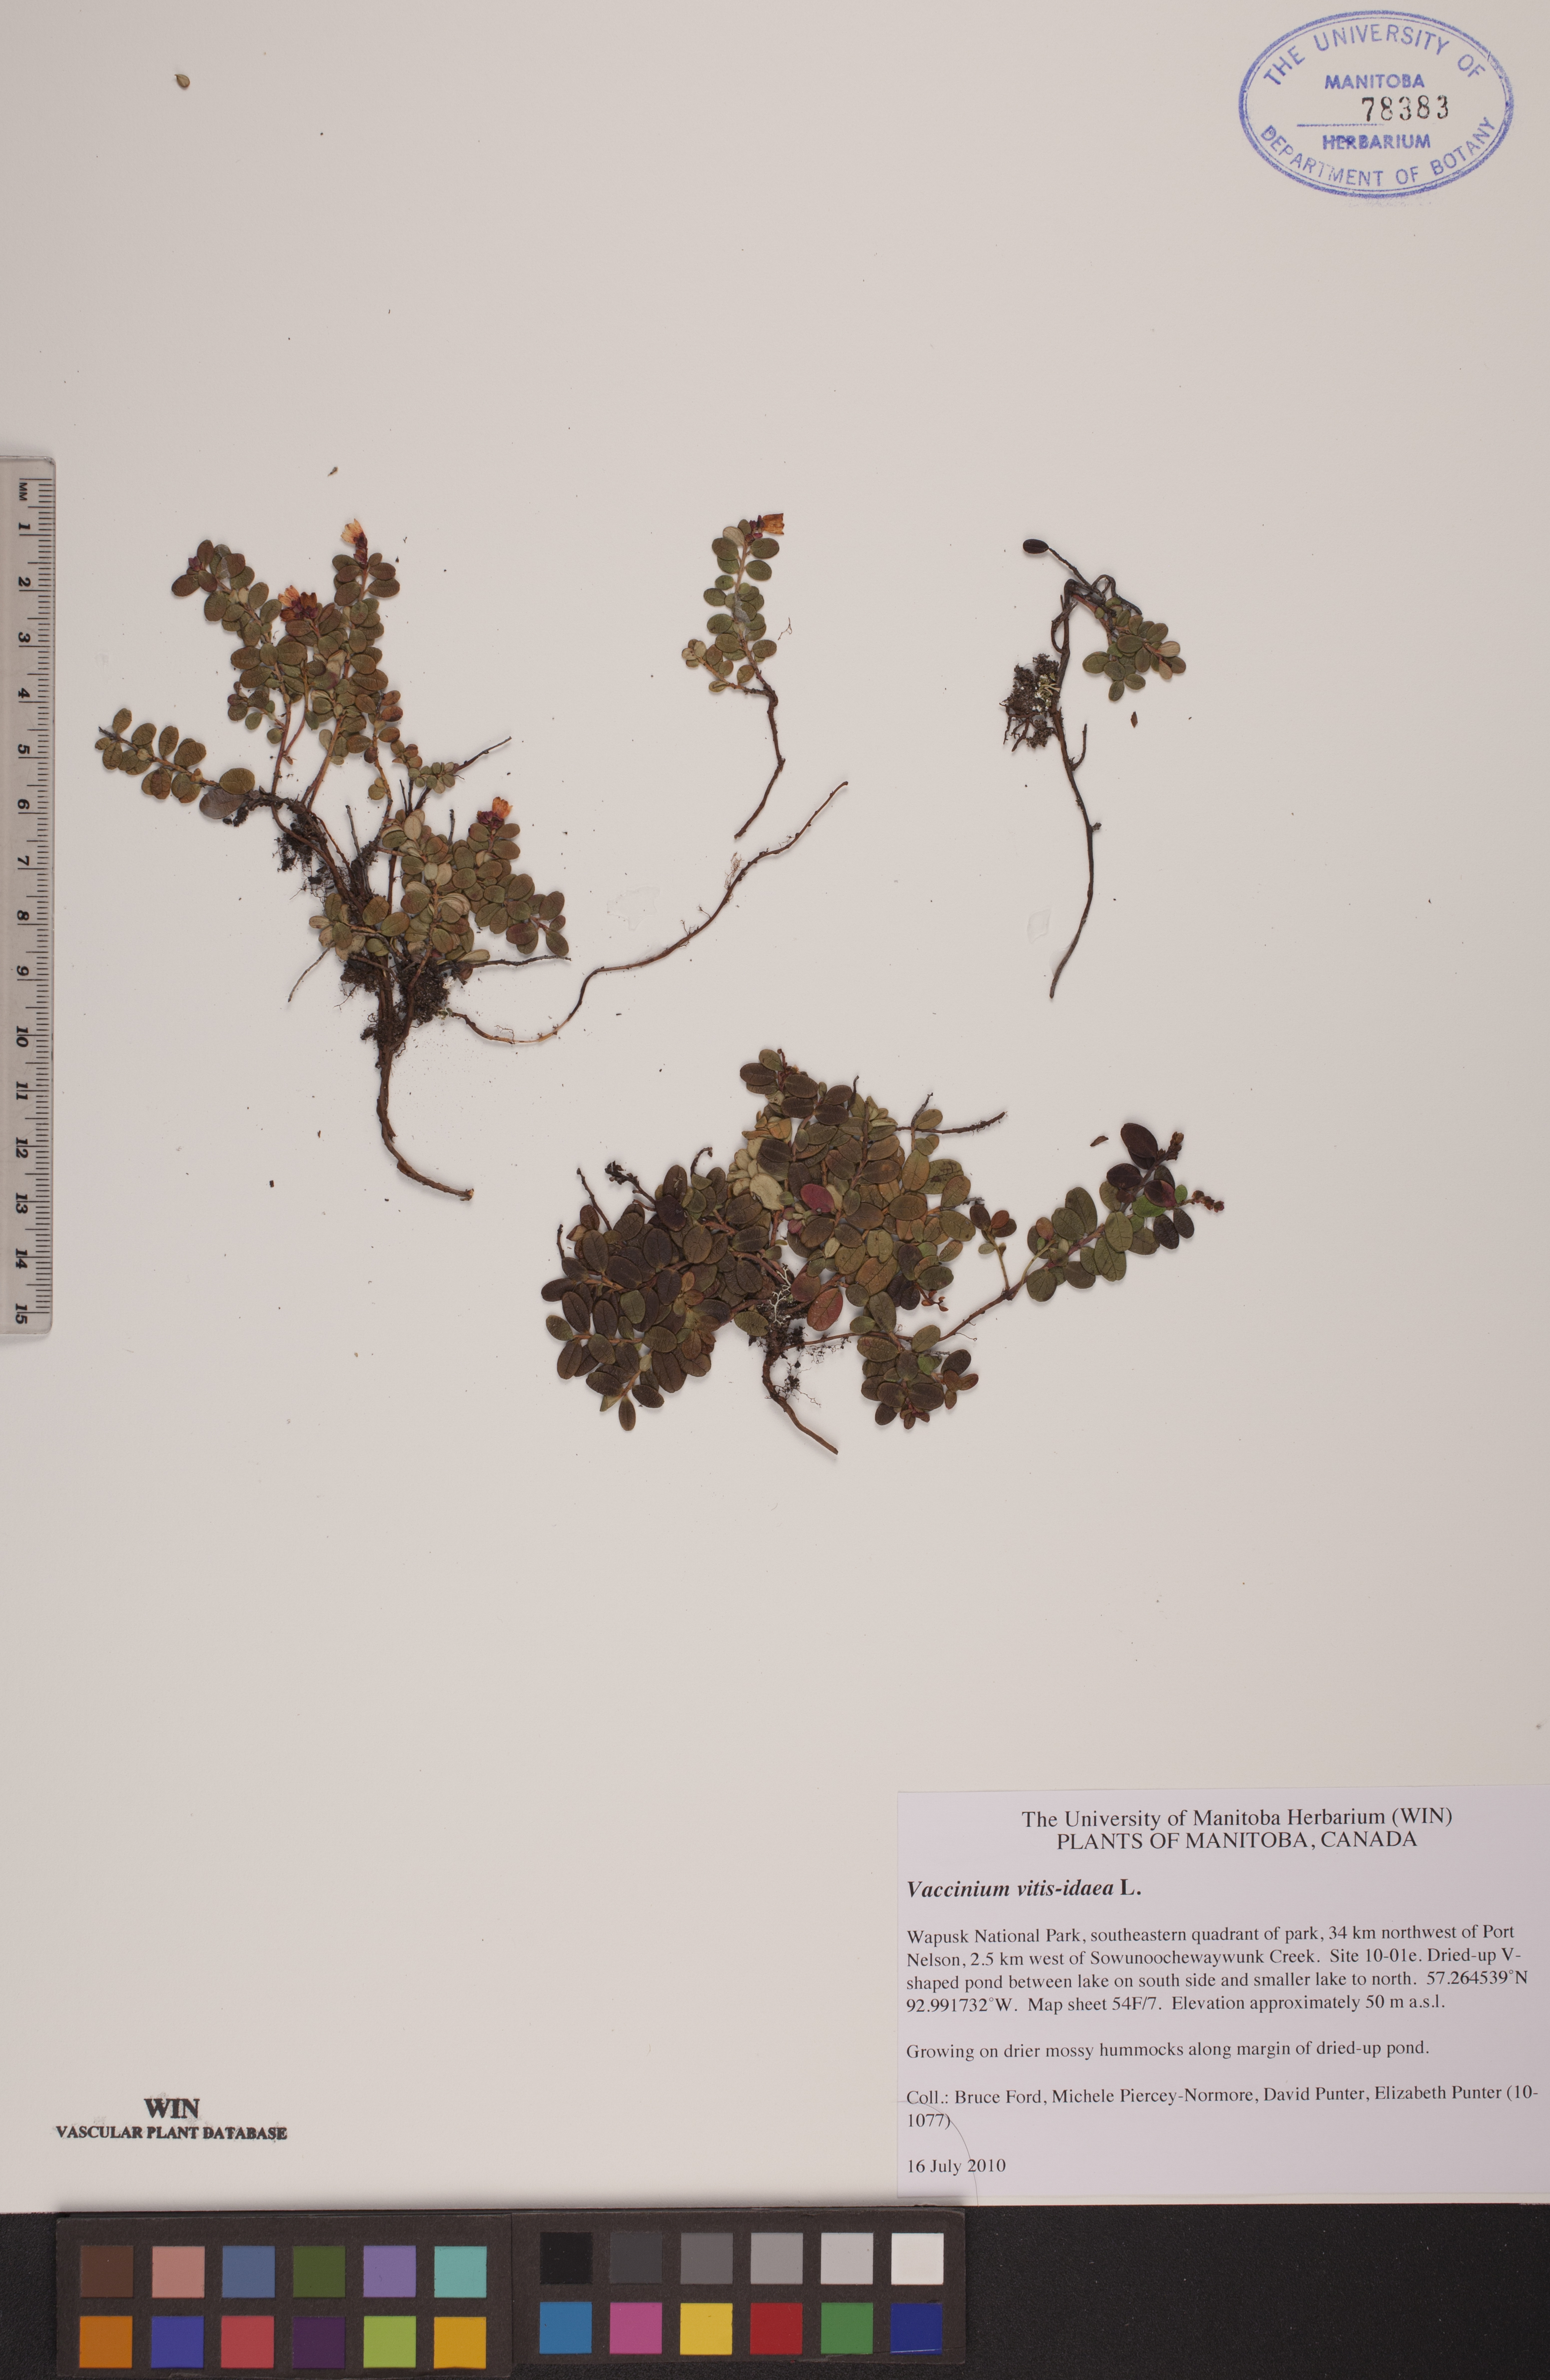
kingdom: Plantae
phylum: Tracheophyta
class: Magnoliopsida
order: Ericales
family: Ericaceae
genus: Vaccinium
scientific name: Vaccinium vitis-idaea
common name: Cowberry
